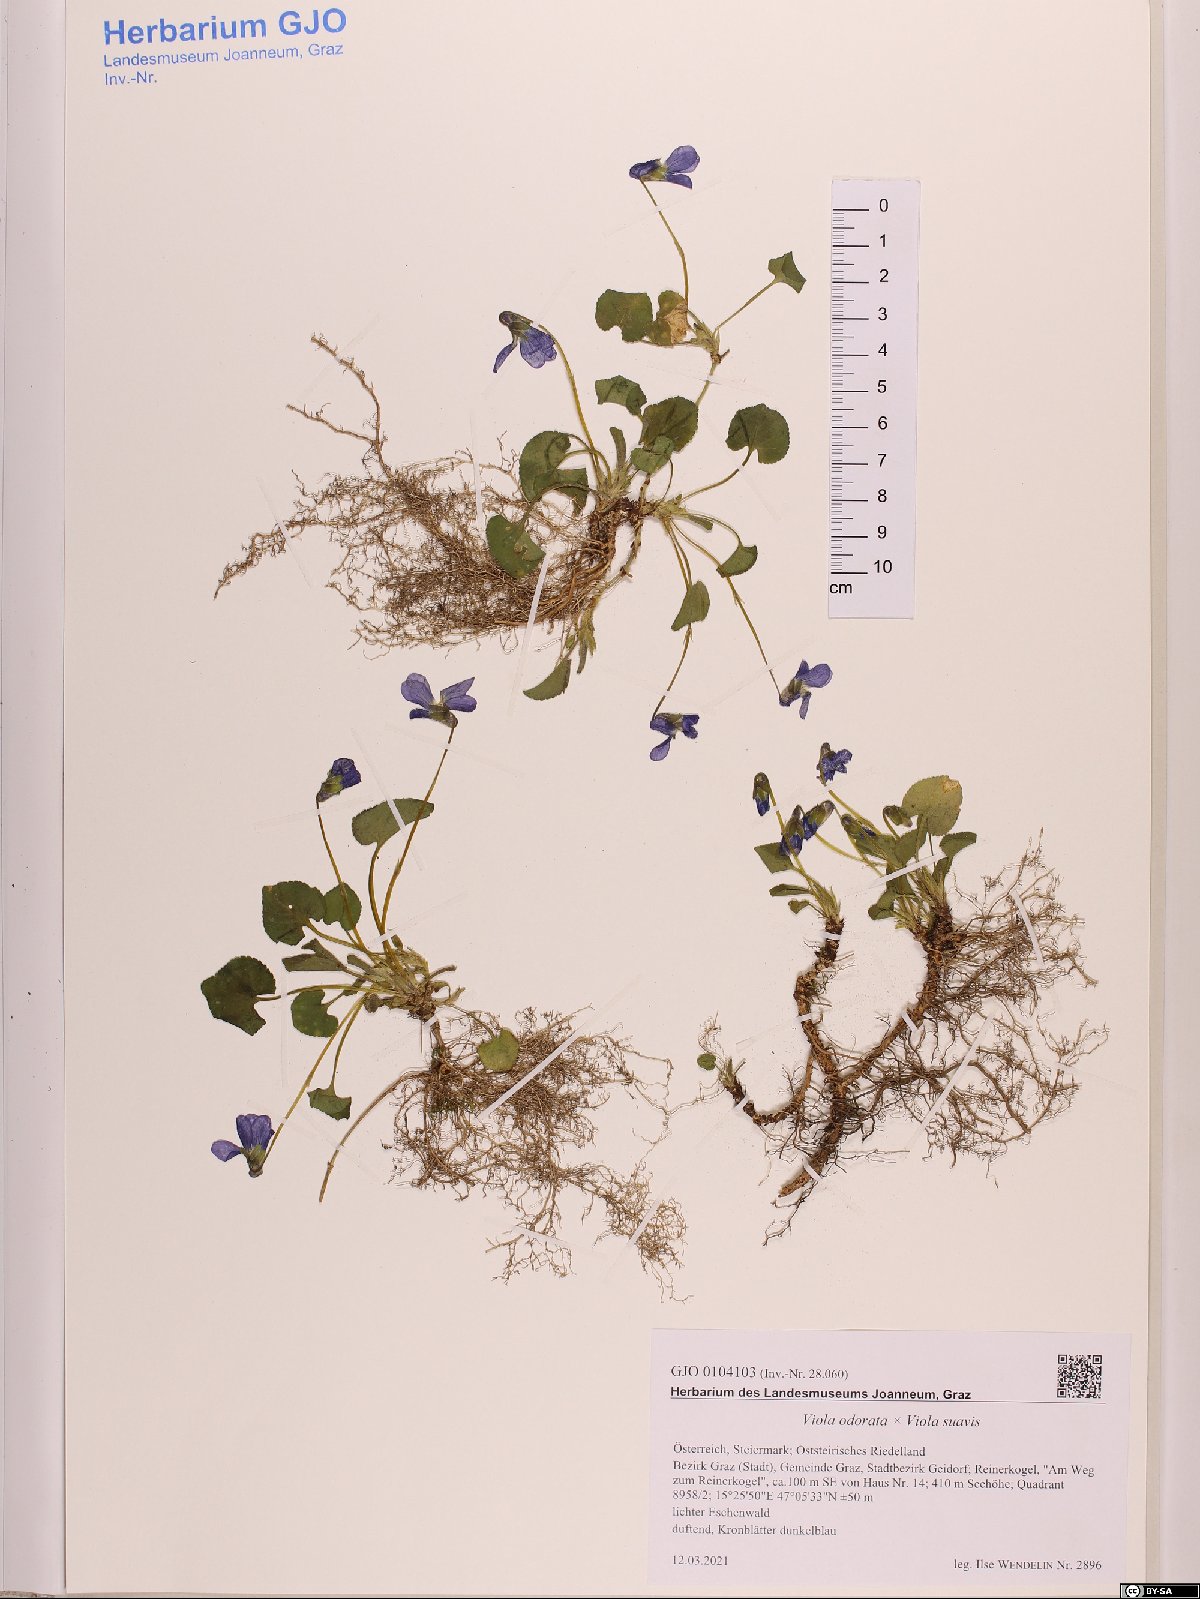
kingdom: Plantae
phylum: Tracheophyta
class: Magnoliopsida
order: Malpighiales
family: Violaceae
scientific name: Violaceae
